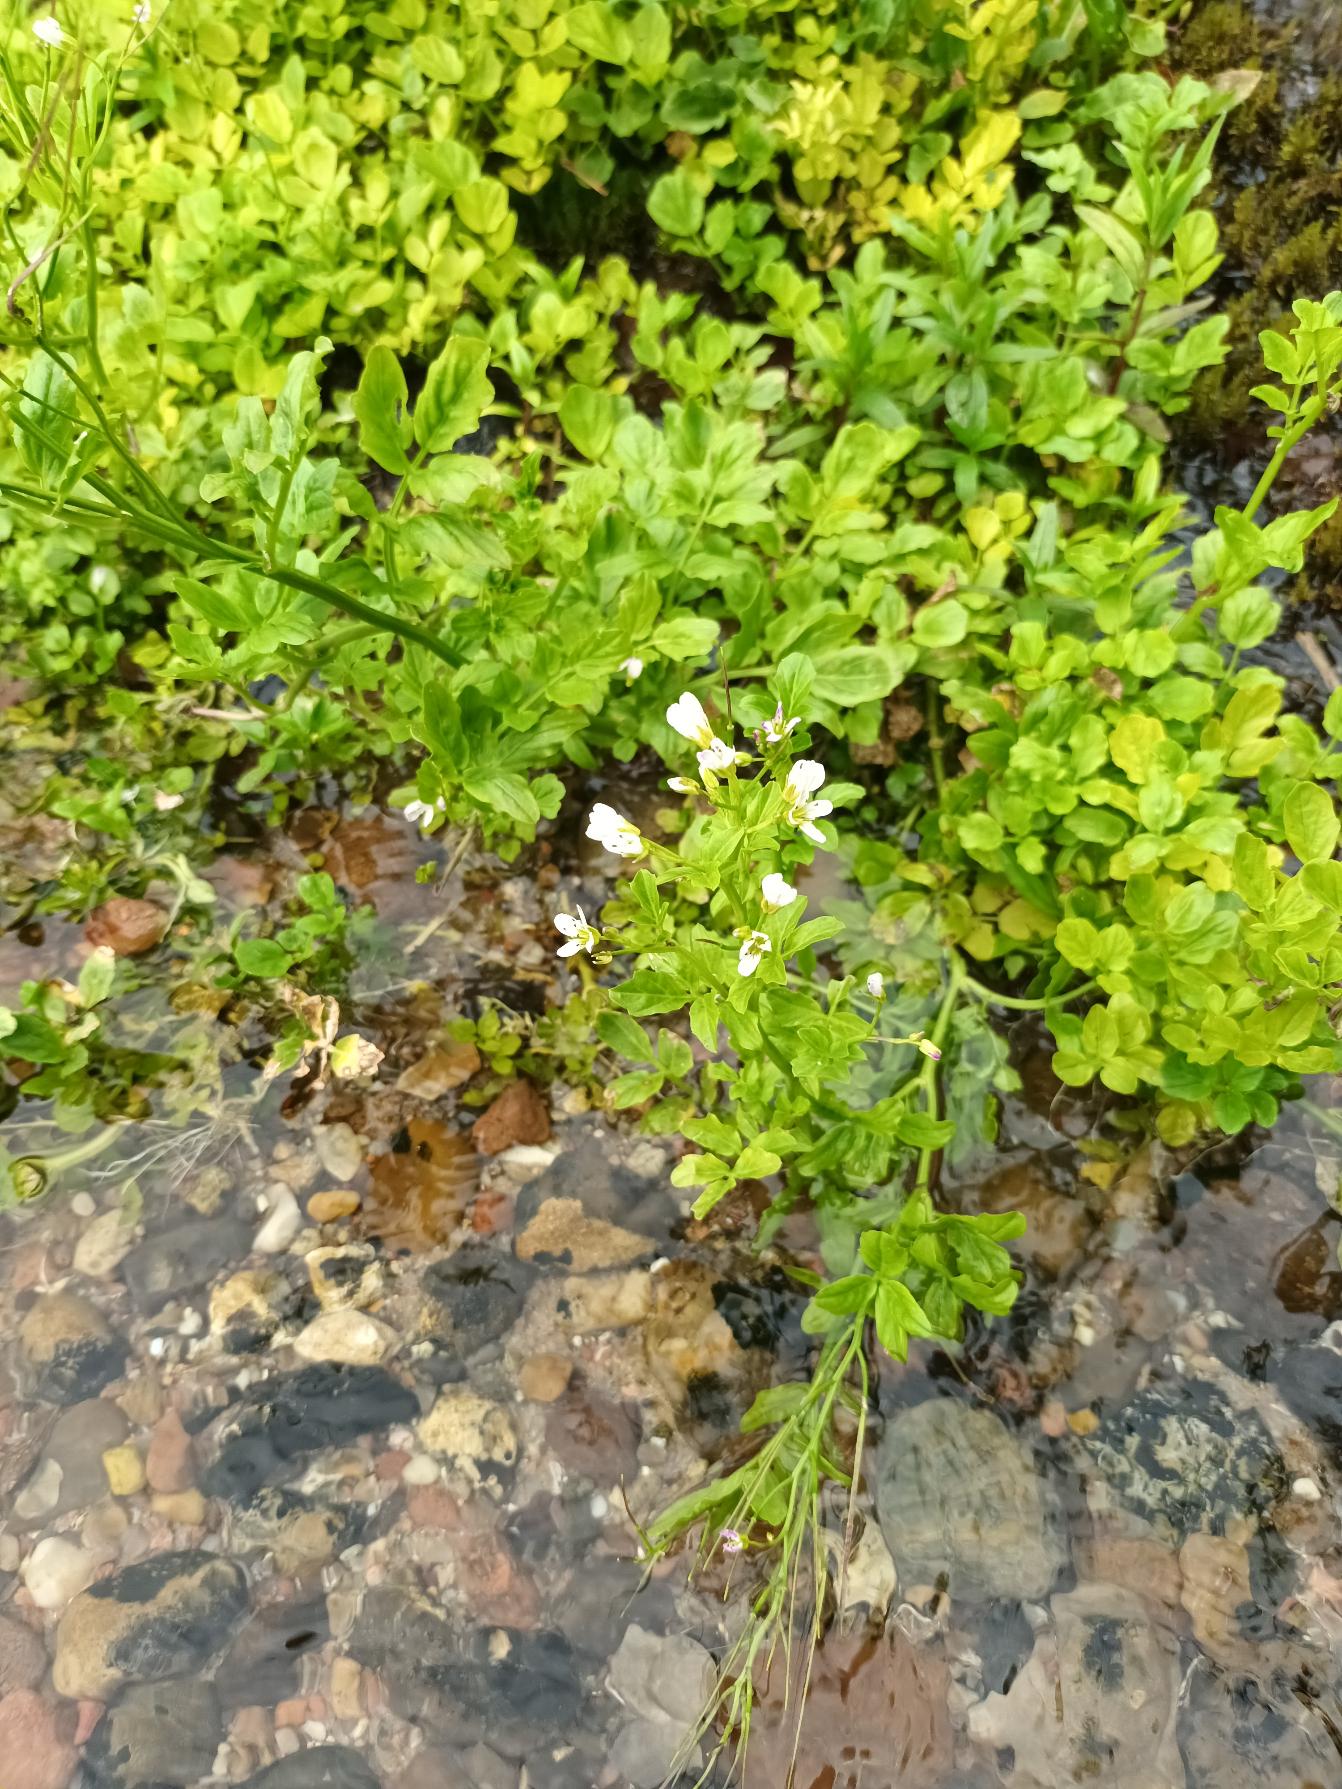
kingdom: Plantae
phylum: Tracheophyta
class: Magnoliopsida
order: Brassicales
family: Brassicaceae
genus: Nasturtium
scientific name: Nasturtium microphyllum
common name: Tyndskulpet brøndkarse
